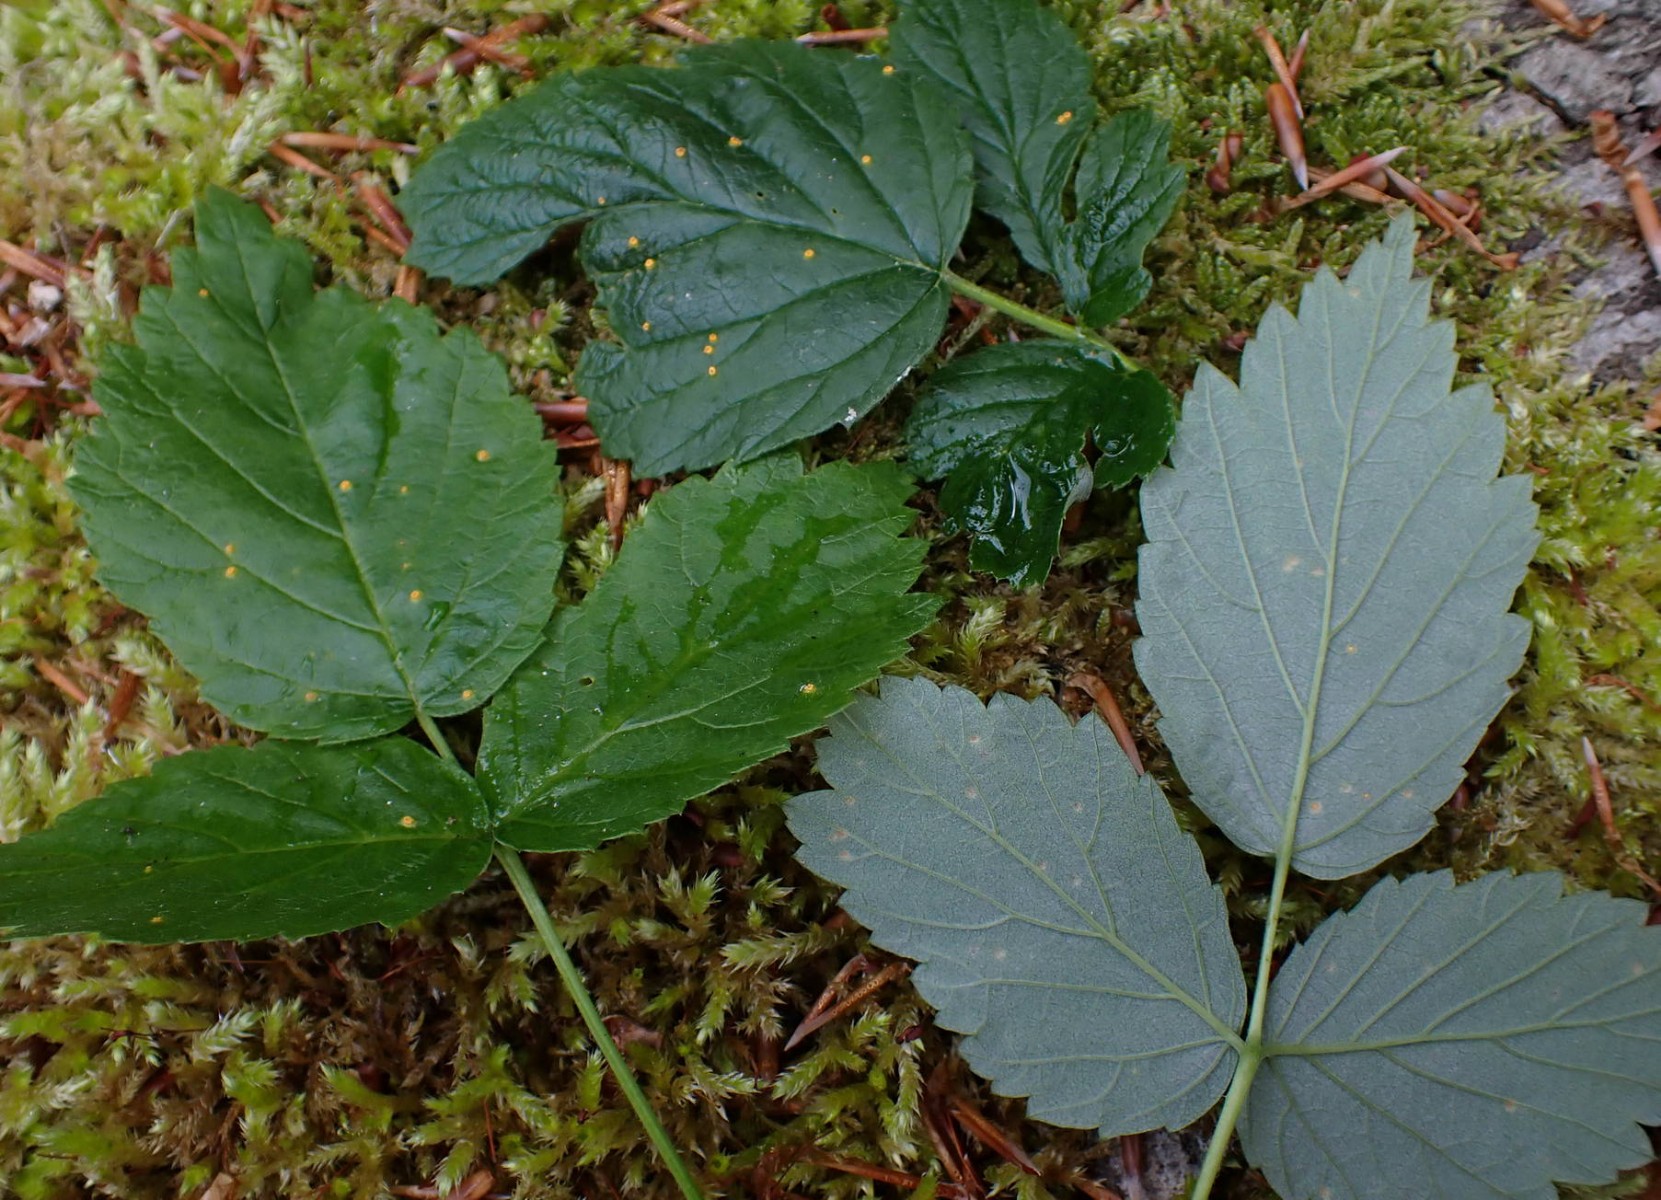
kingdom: Fungi
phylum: Basidiomycota
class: Pucciniomycetes
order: Pucciniales
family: Phragmidiaceae
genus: Phragmidium
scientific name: Phragmidium rubi-idaei
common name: hindbær-flercellerust
